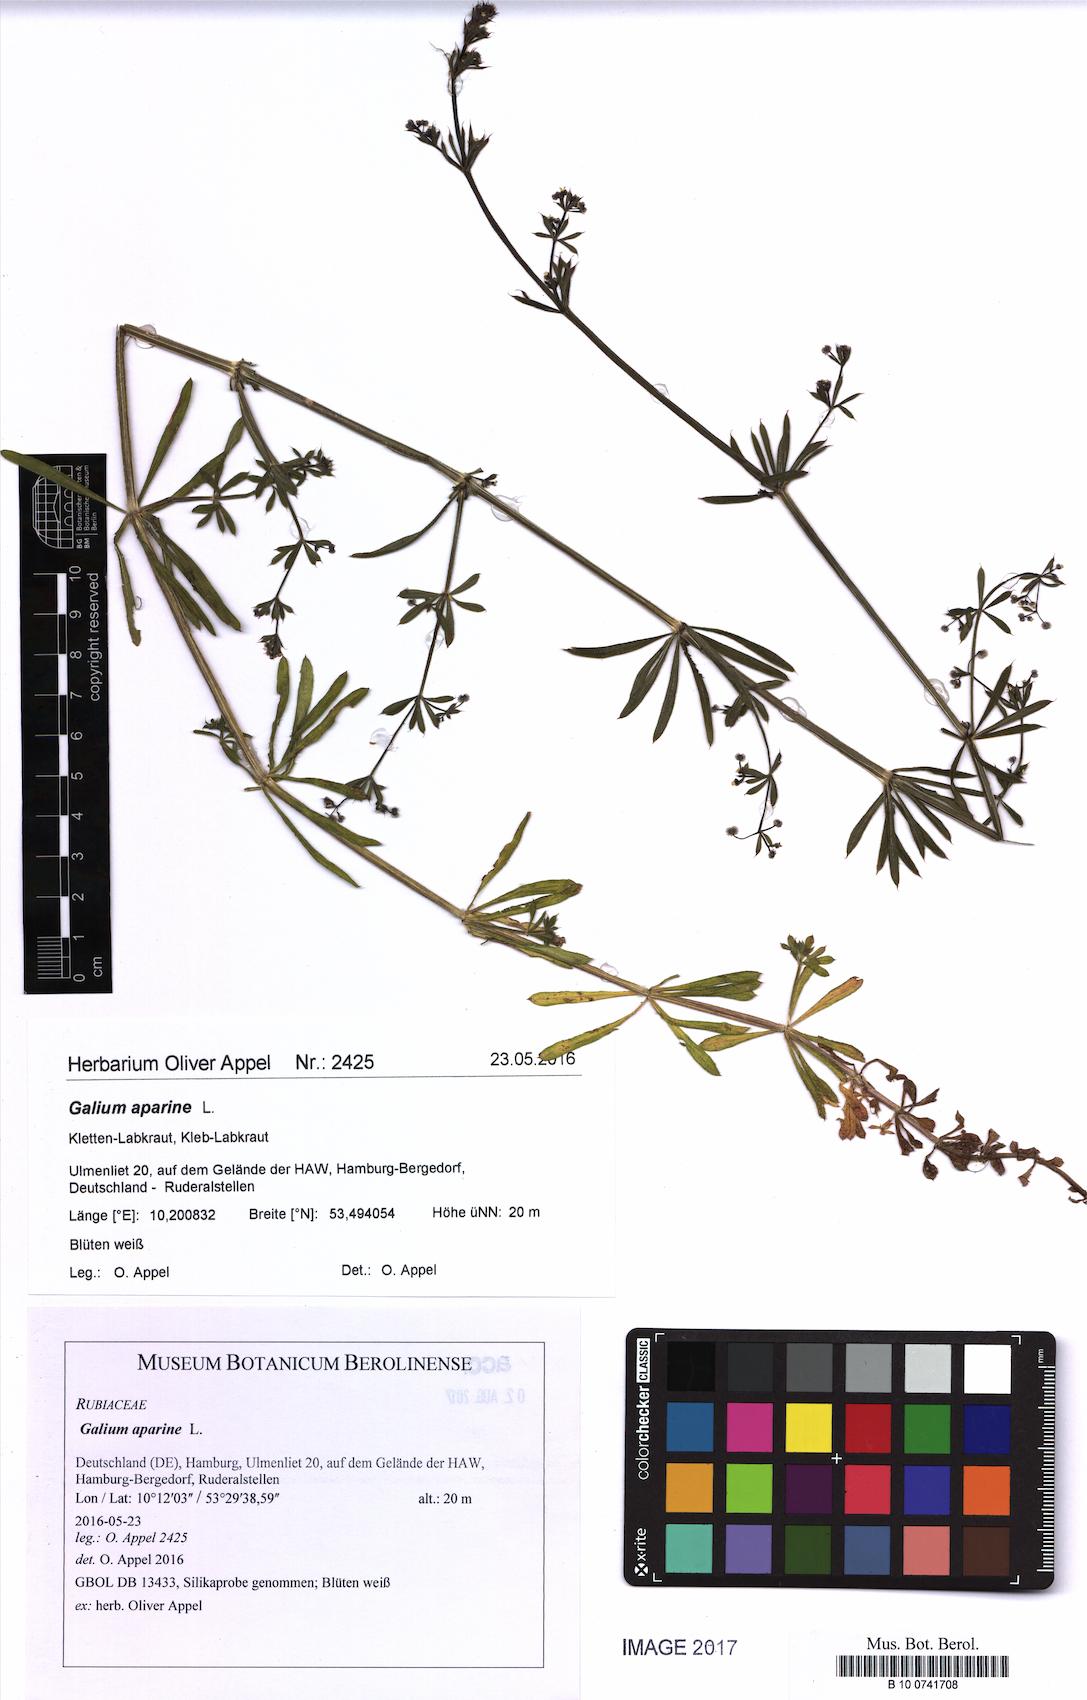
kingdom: Plantae
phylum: Tracheophyta
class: Magnoliopsida
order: Gentianales
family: Rubiaceae
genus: Galium
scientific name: Galium aparine
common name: Cleavers
